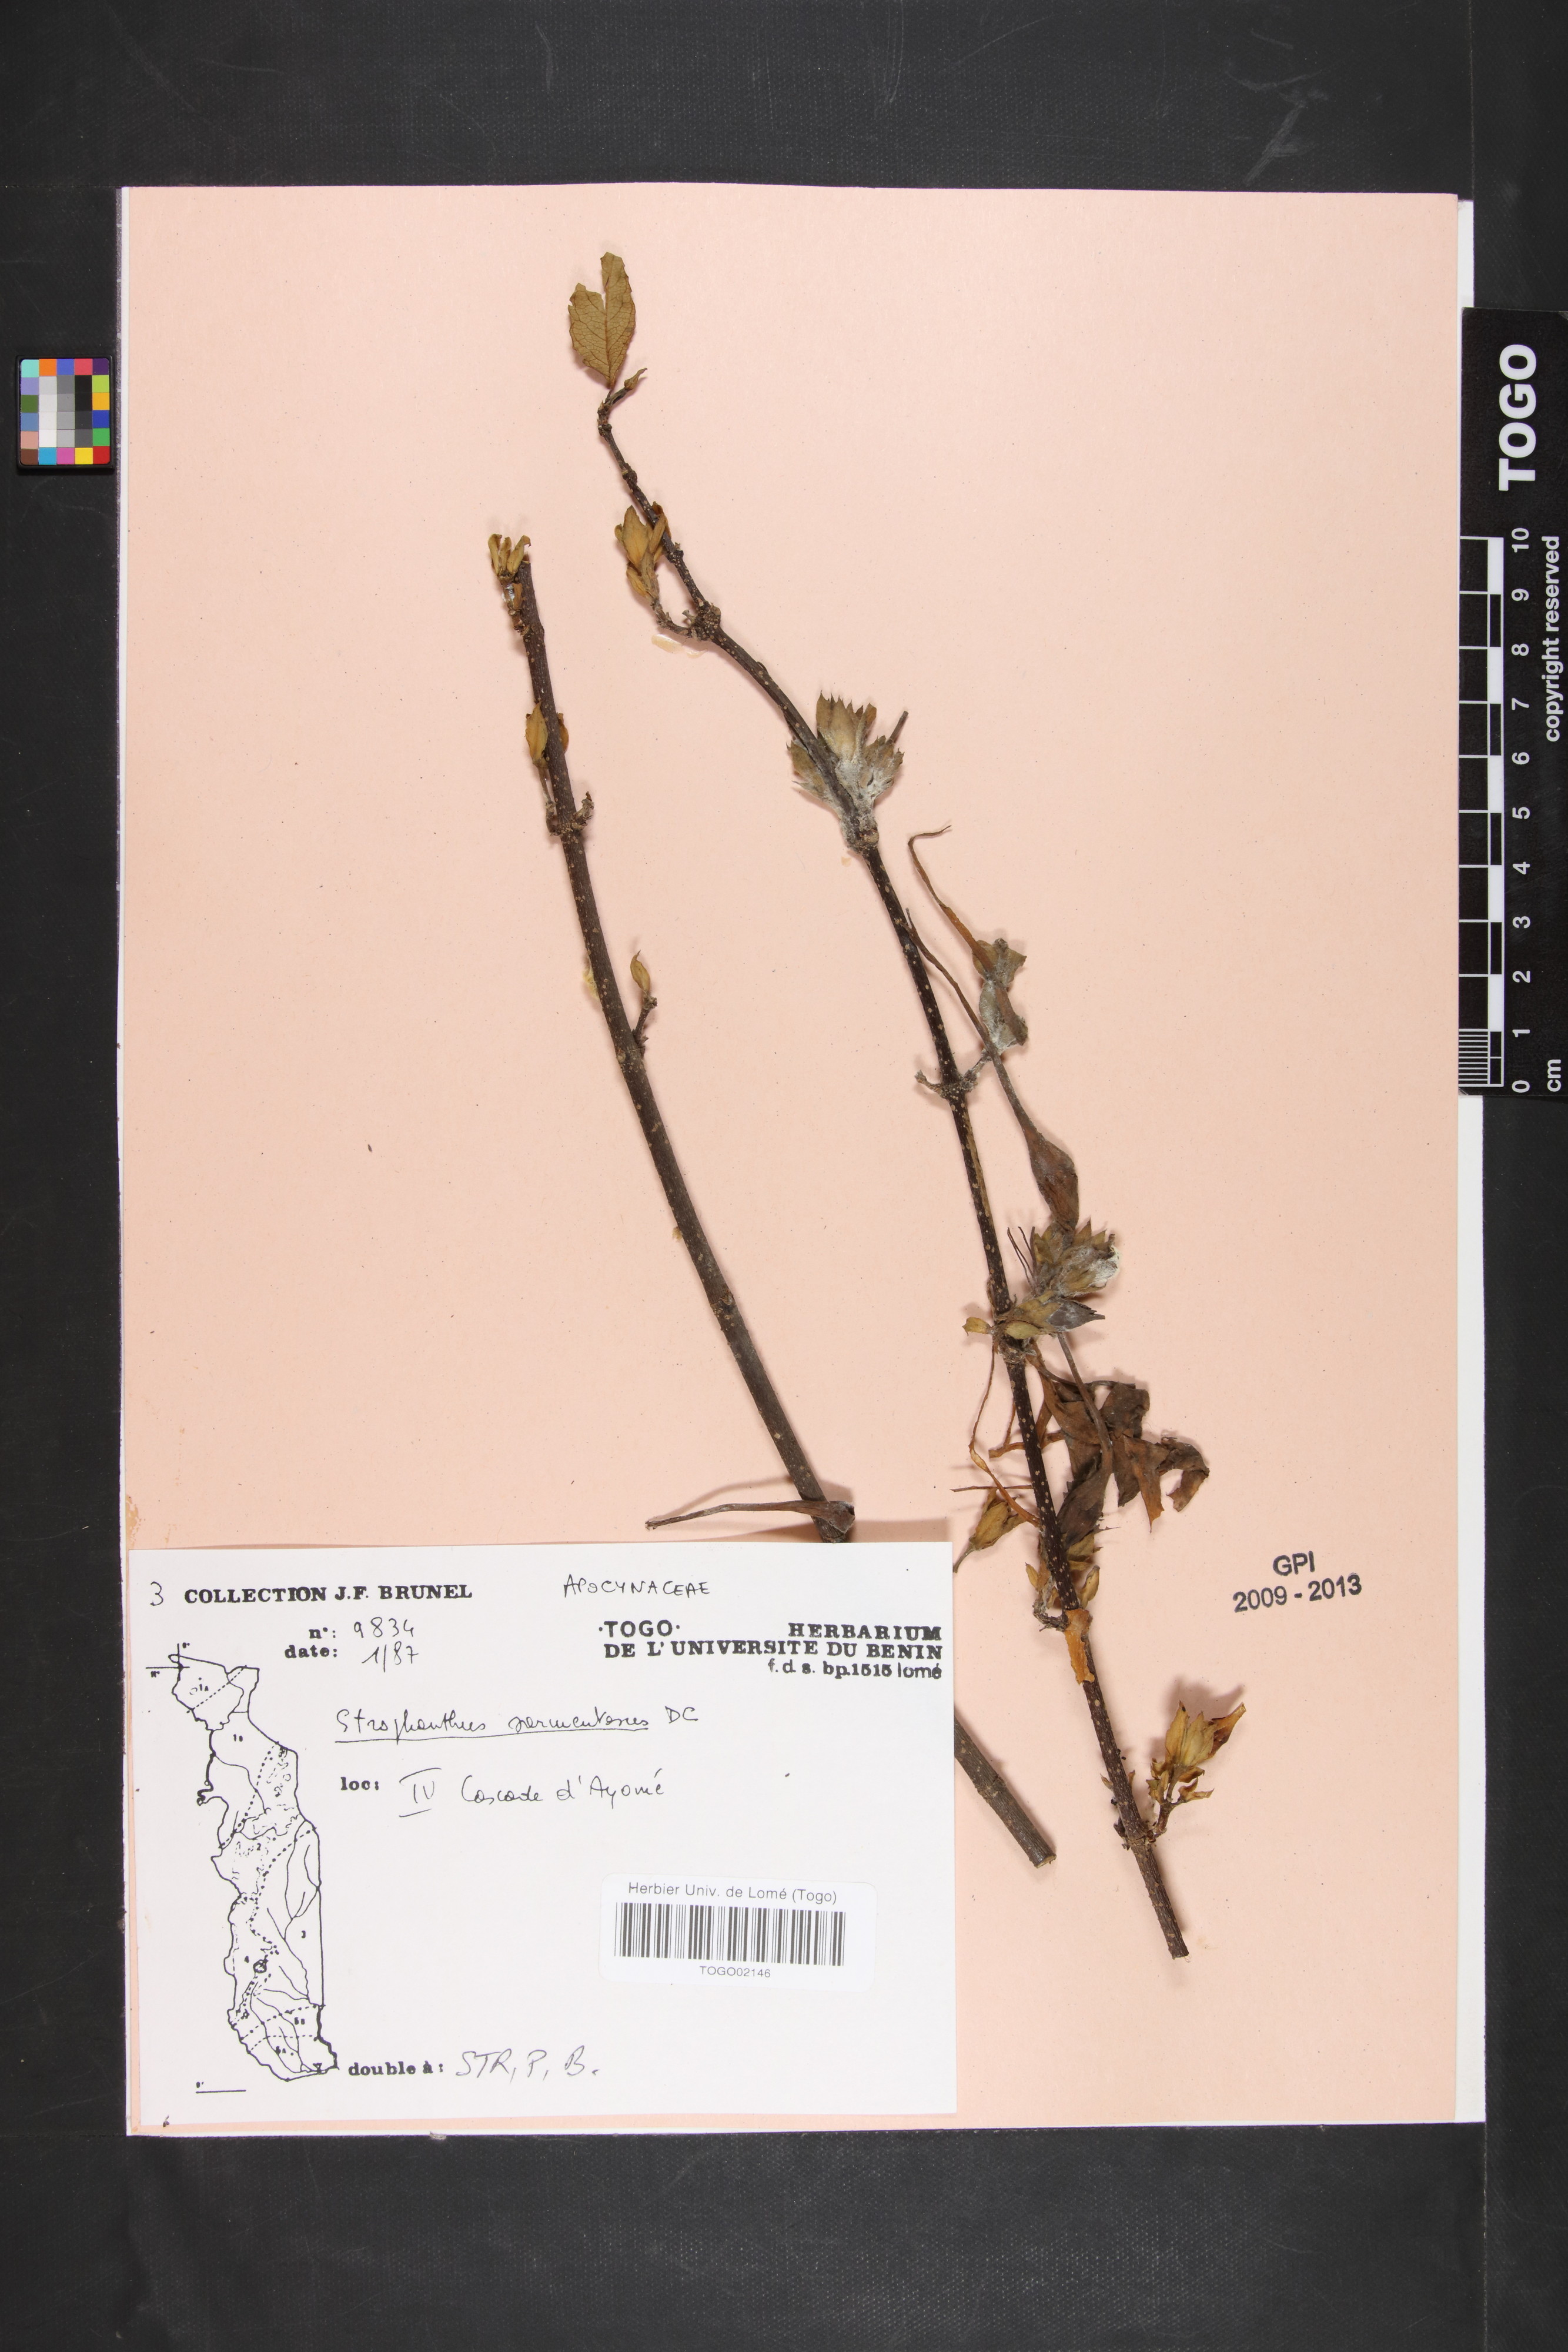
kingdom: Plantae
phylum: Tracheophyta
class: Magnoliopsida
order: Gentianales
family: Apocynaceae
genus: Strophanthus
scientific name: Strophanthus sarmentosus
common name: Poison arrowvine
